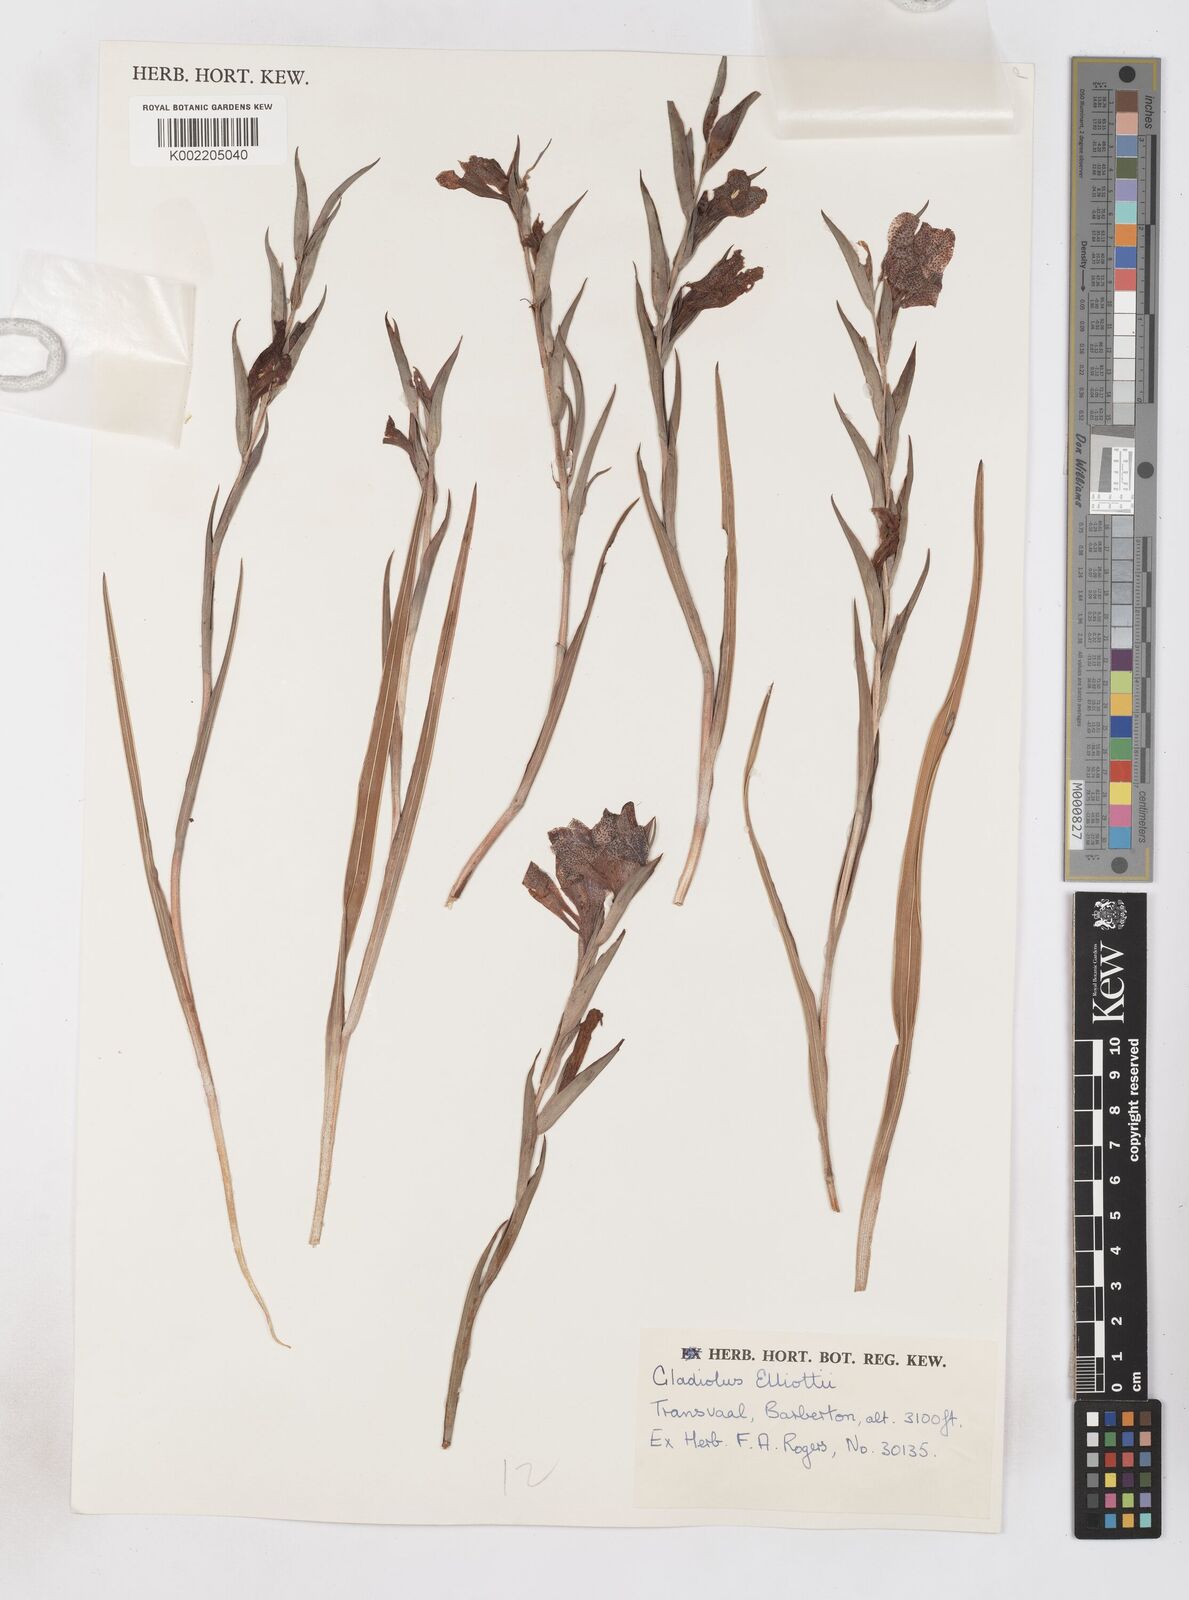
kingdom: Plantae
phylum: Tracheophyta
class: Liliopsida
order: Asparagales
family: Iridaceae
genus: Gladiolus
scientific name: Gladiolus ecklonii
